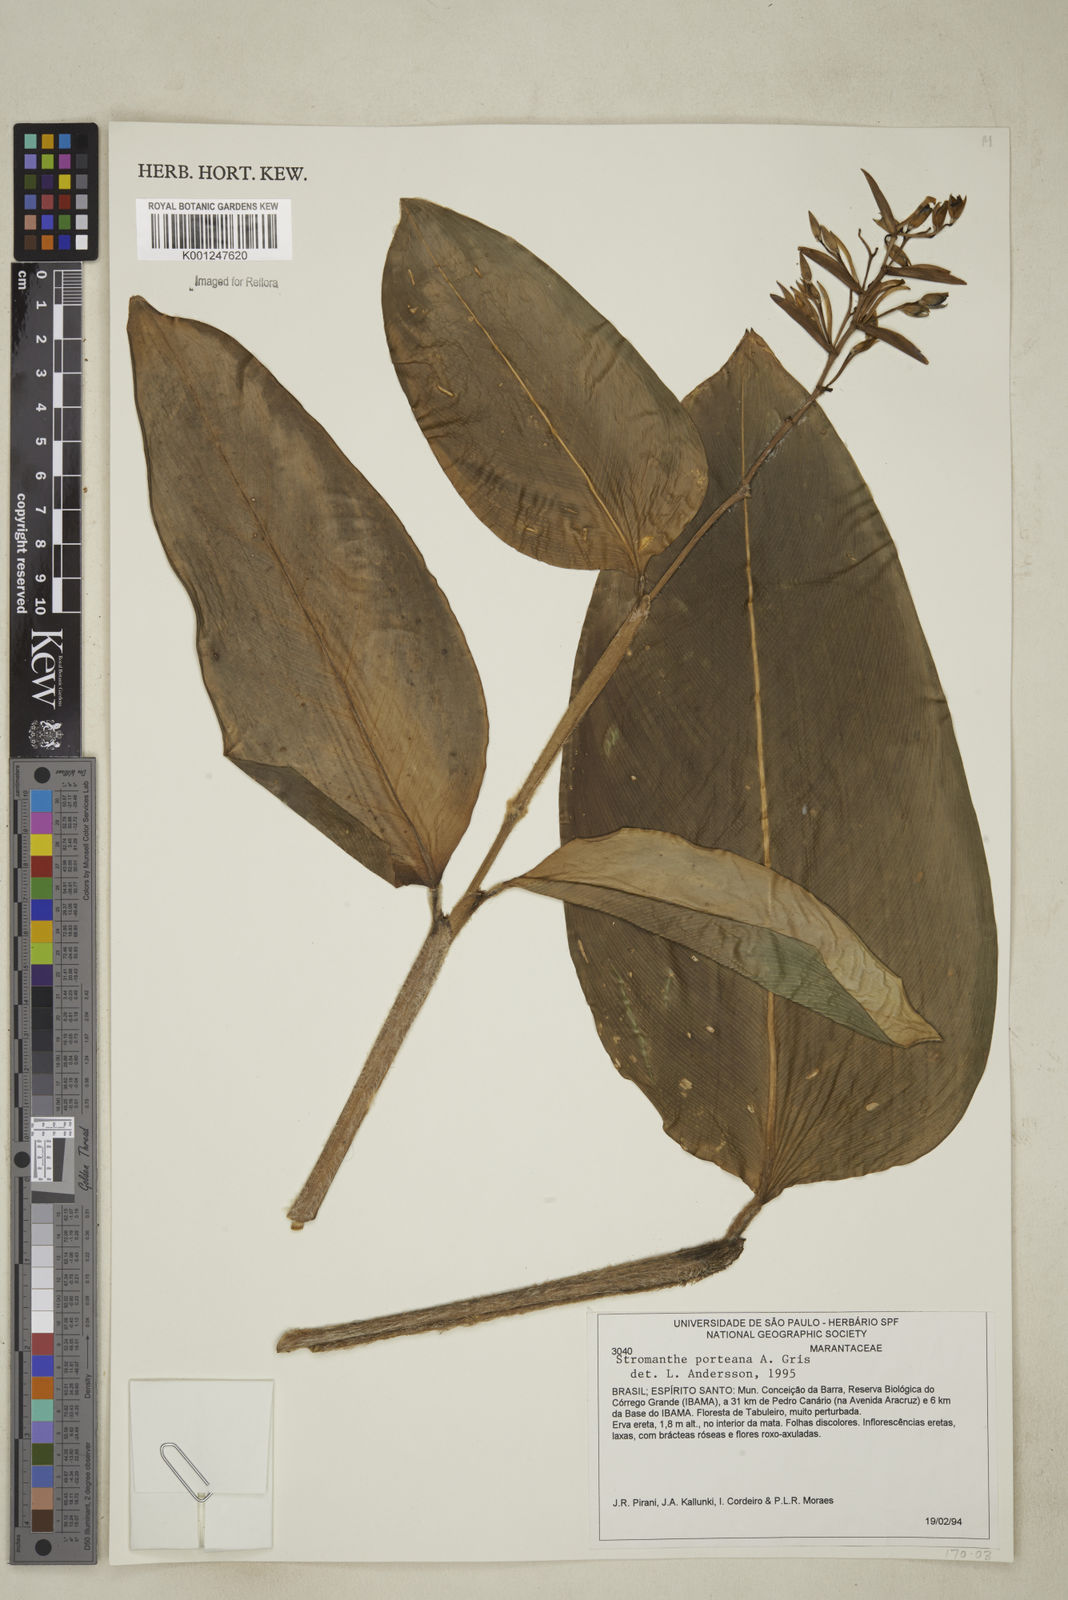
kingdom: Plantae
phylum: Tracheophyta
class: Liliopsida
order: Zingiberales
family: Marantaceae
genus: Stromanthe
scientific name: Stromanthe porteana
